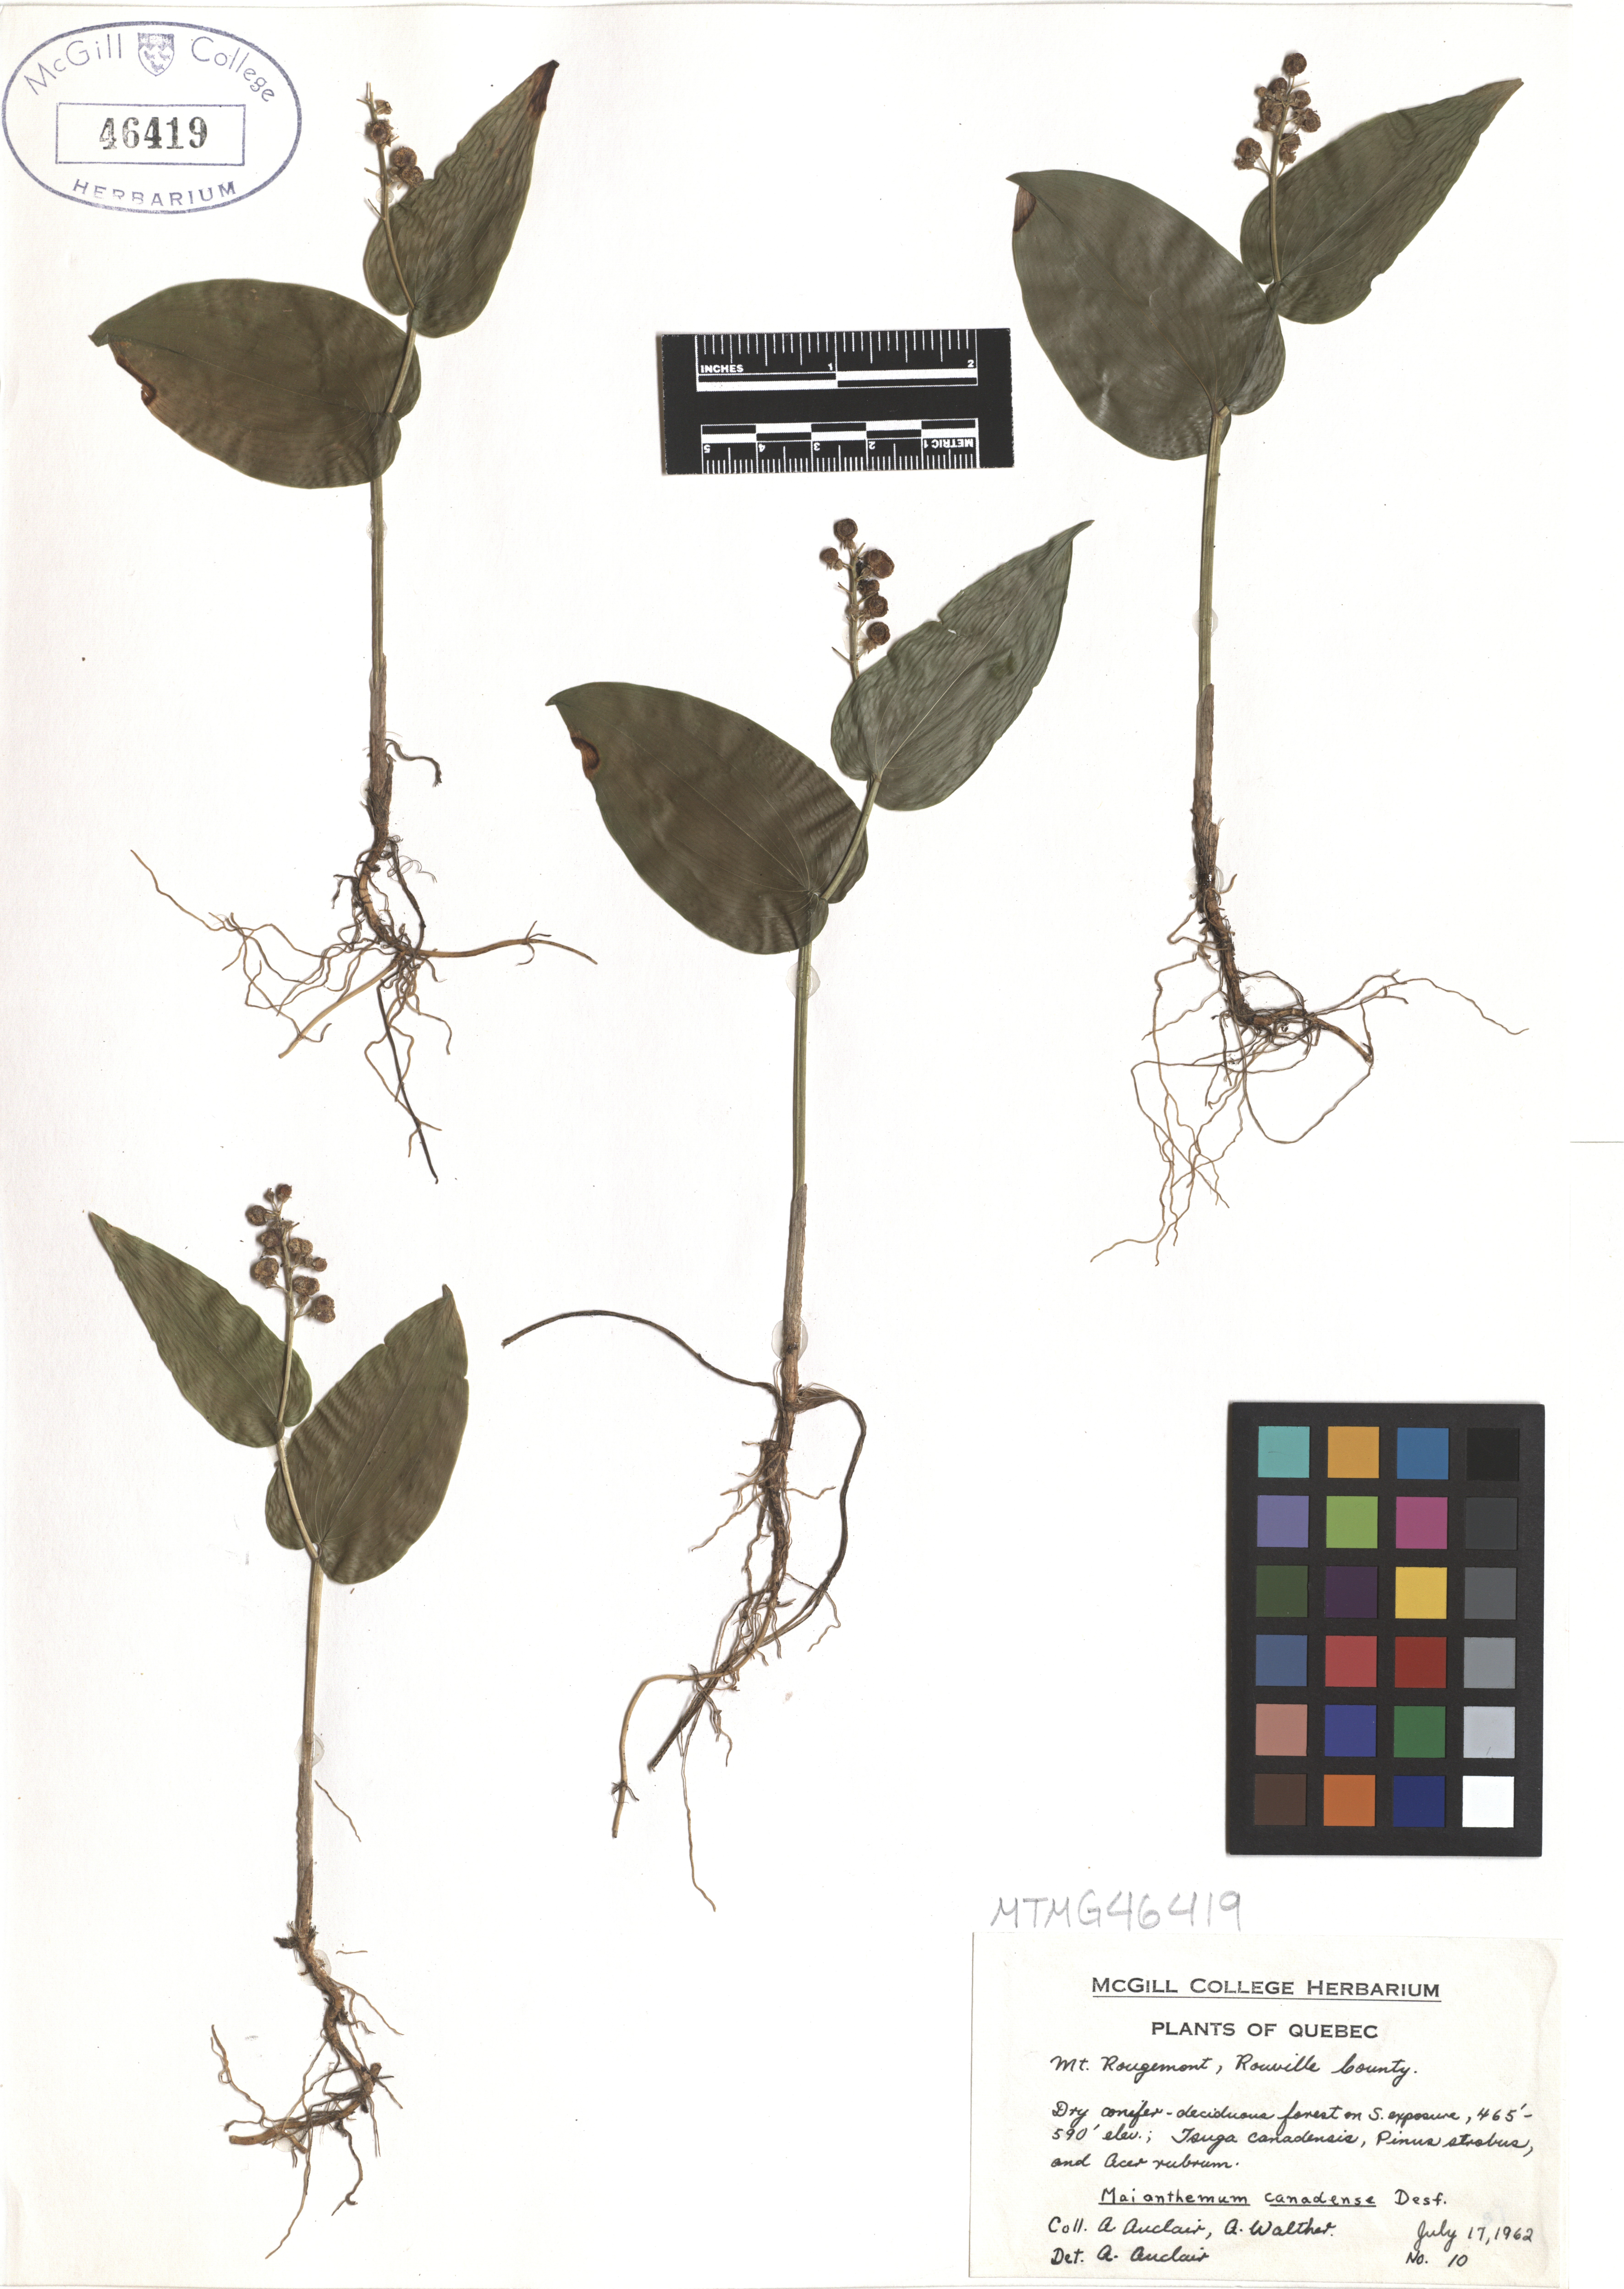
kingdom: Plantae
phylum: Tracheophyta
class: Liliopsida
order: Asparagales
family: Asparagaceae
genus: Maianthemum
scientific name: Maianthemum canadense
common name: False lily-of-the-valley
